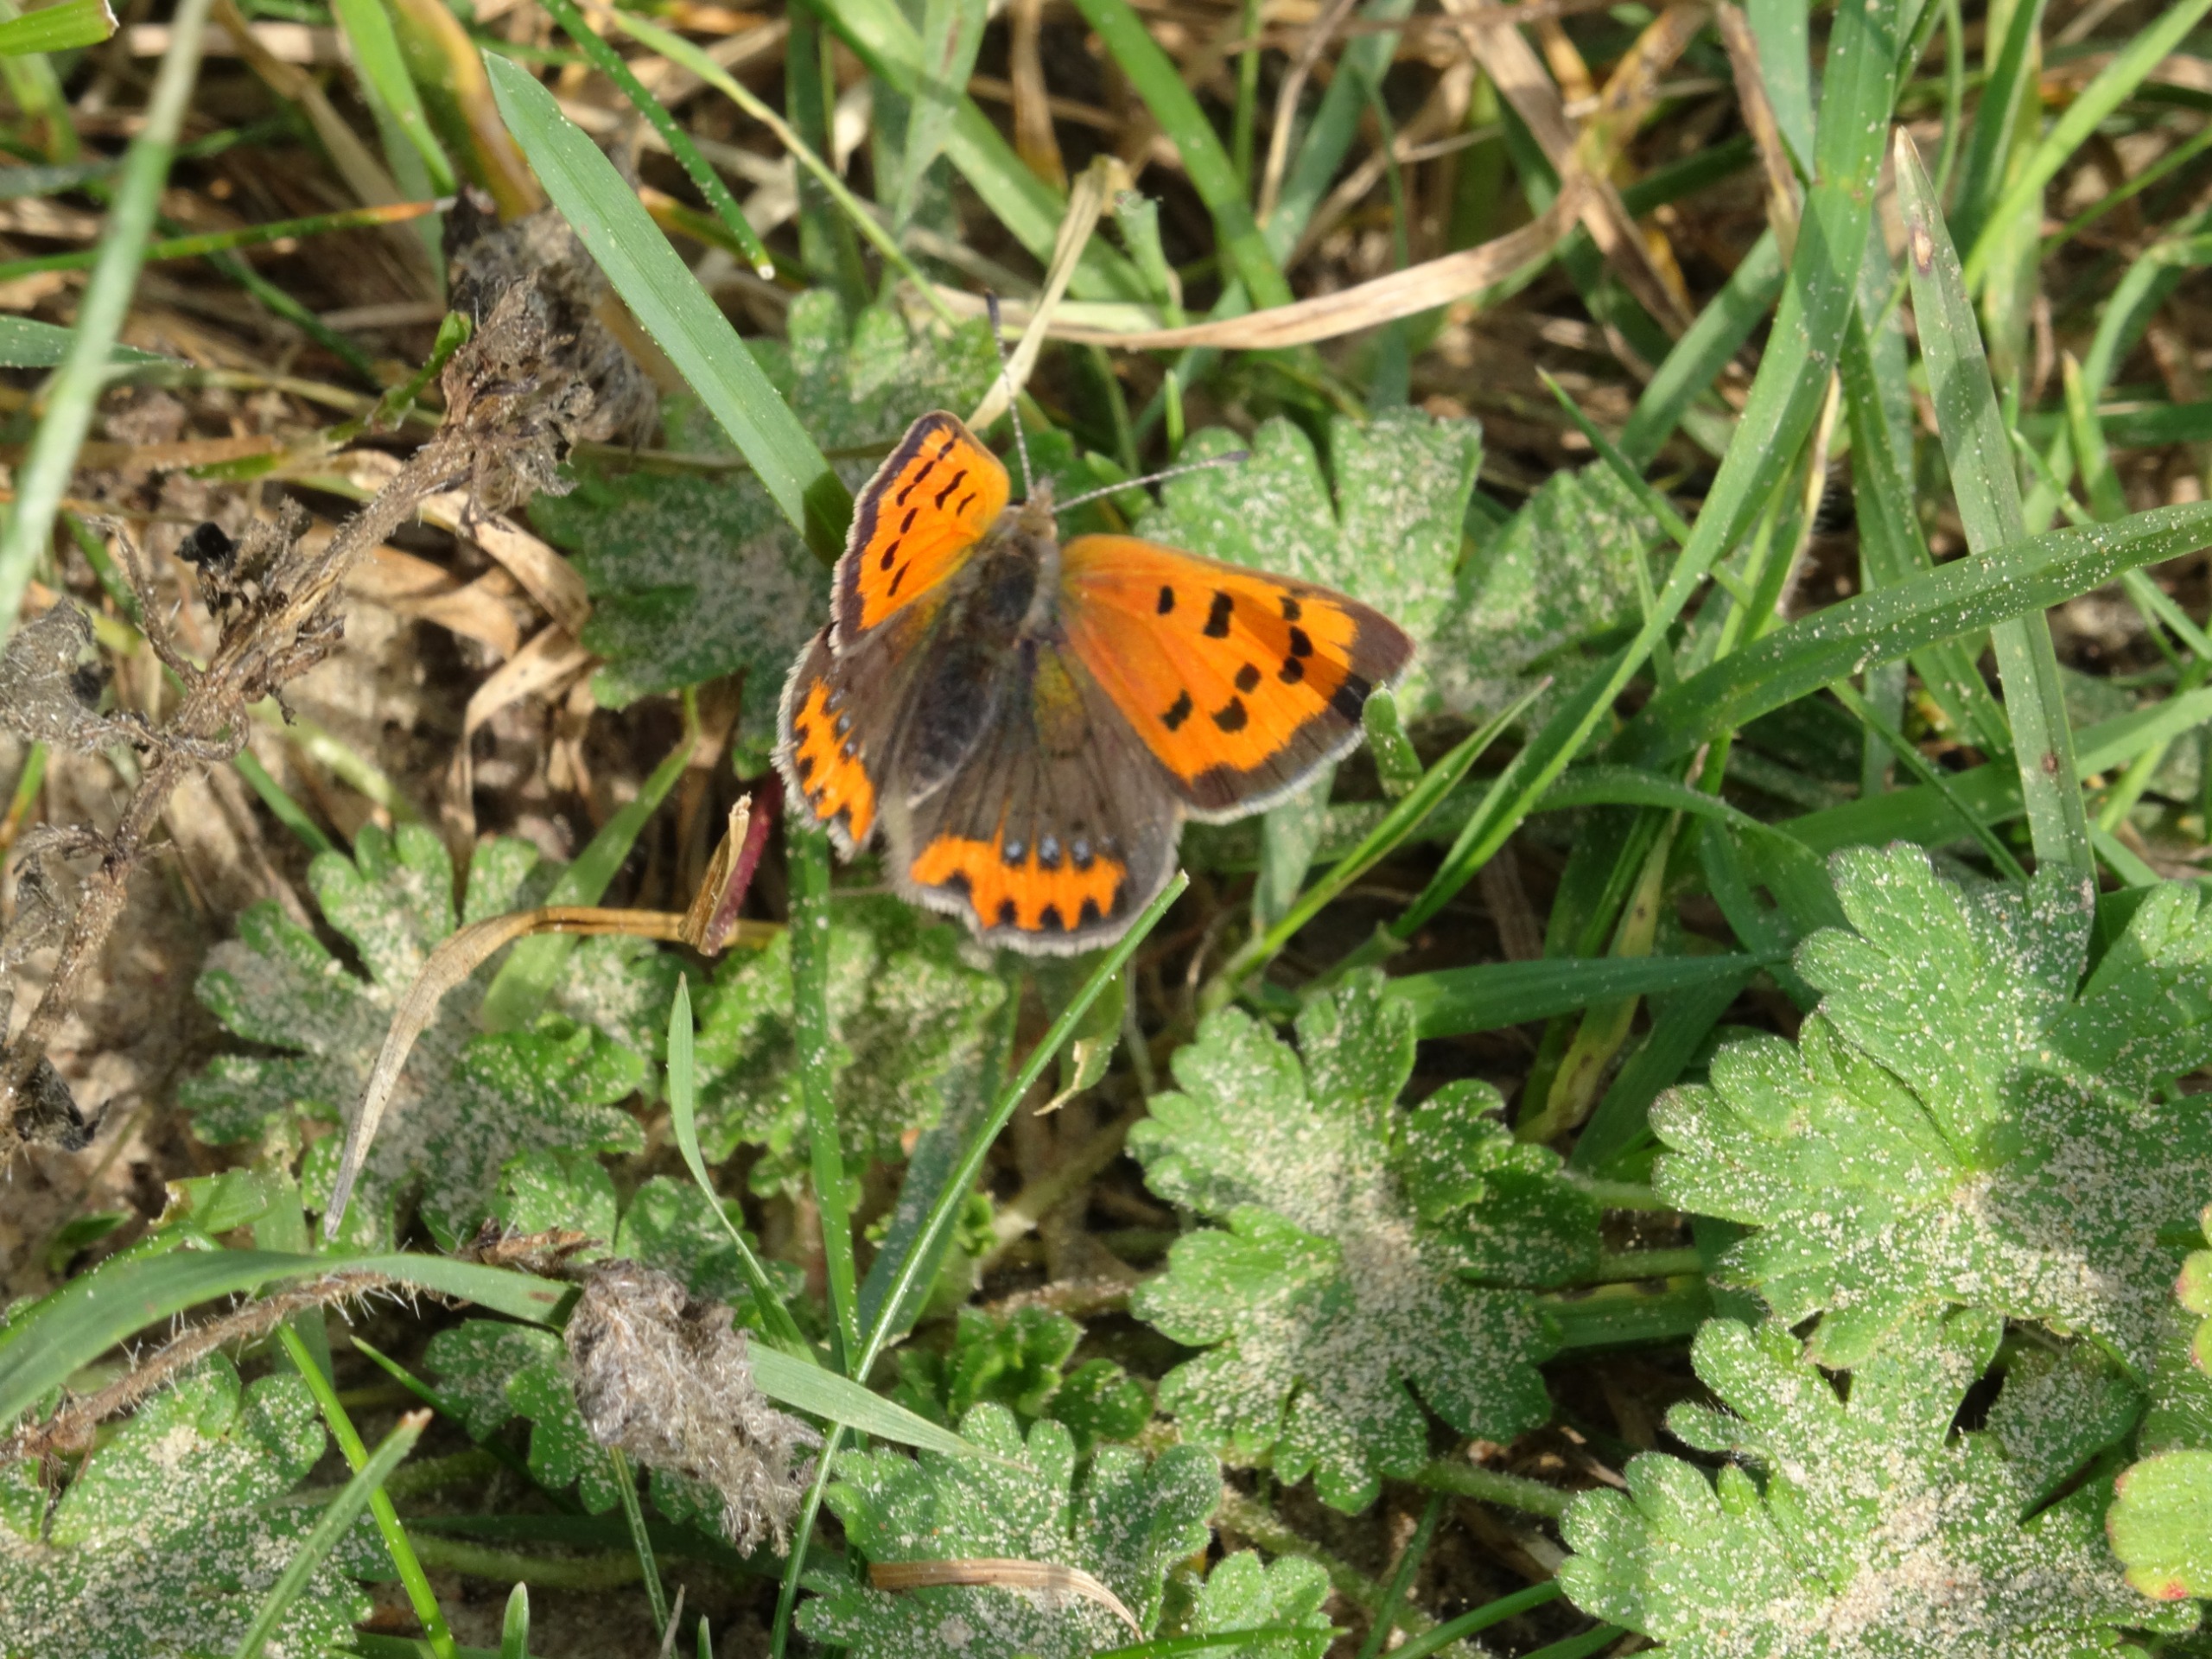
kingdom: Animalia
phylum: Arthropoda
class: Insecta
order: Lepidoptera
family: Lycaenidae
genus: Lycaena
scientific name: Lycaena phlaeas
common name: Lille ildfugl
